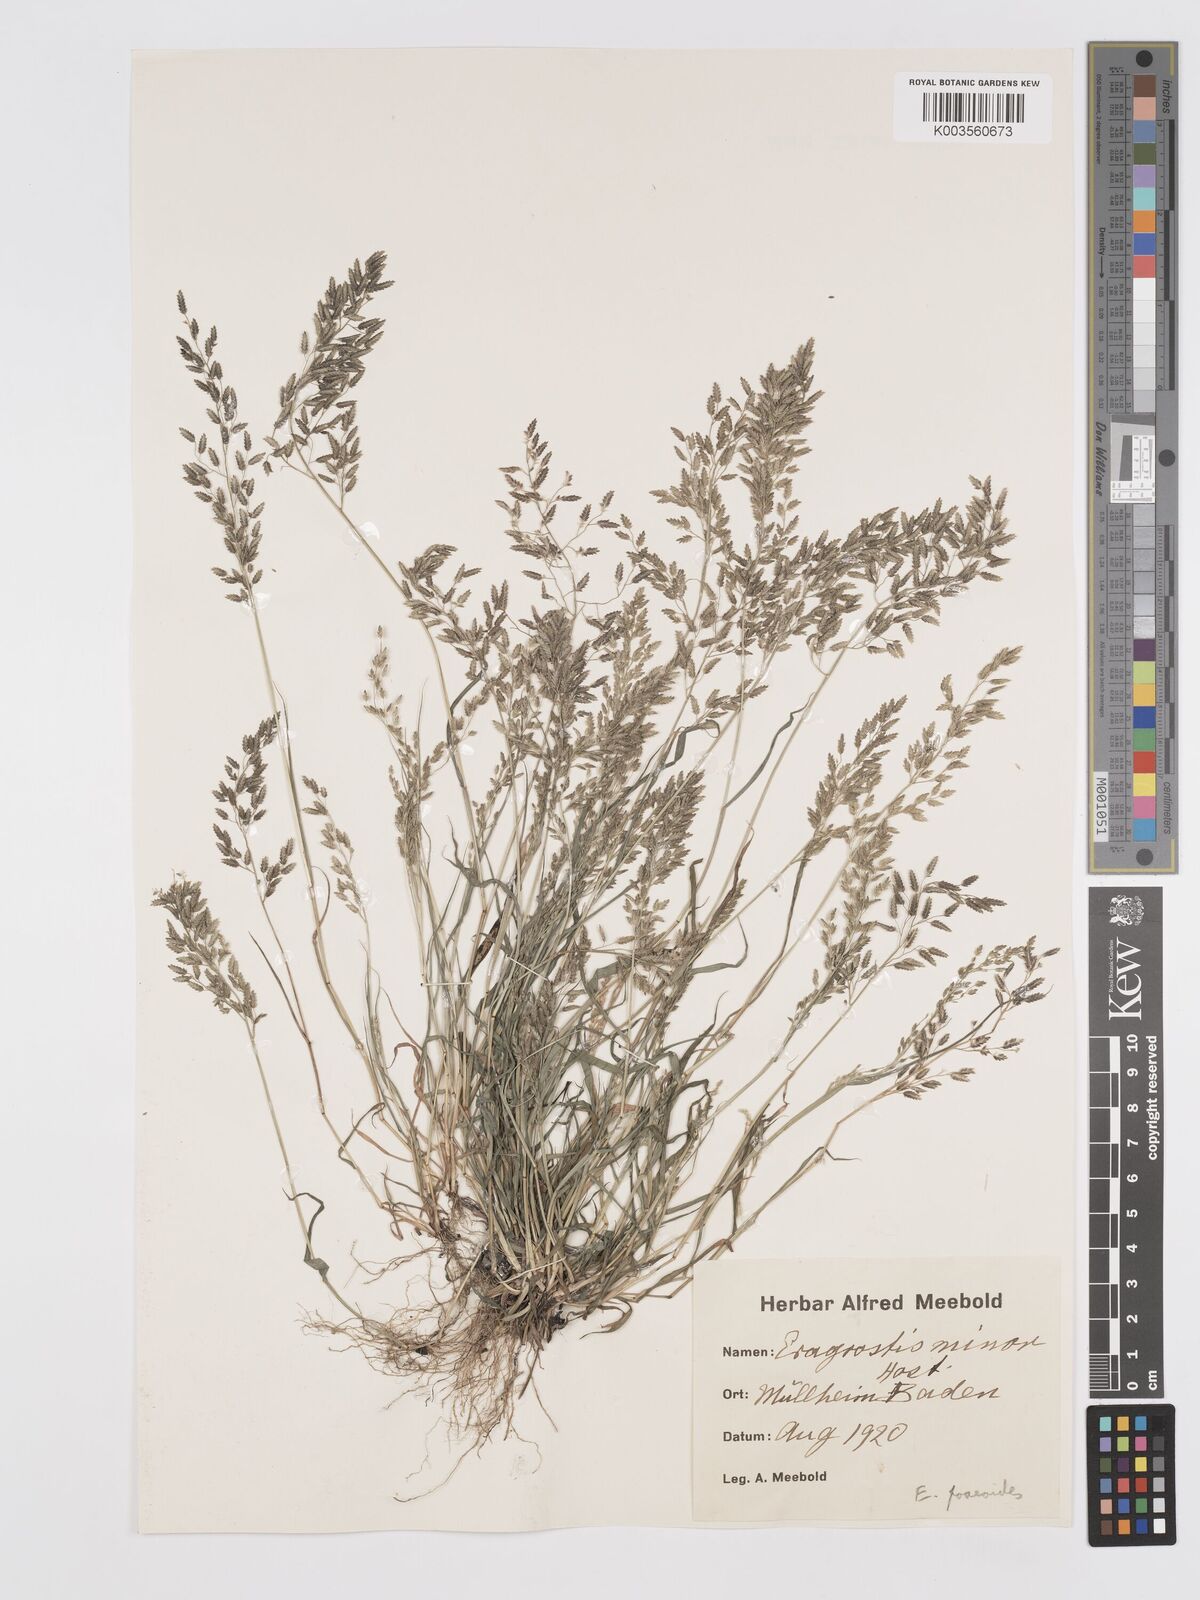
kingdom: Plantae
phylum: Tracheophyta
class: Liliopsida
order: Poales
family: Poaceae
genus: Eragrostis
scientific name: Eragrostis minor
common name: Small love-grass
